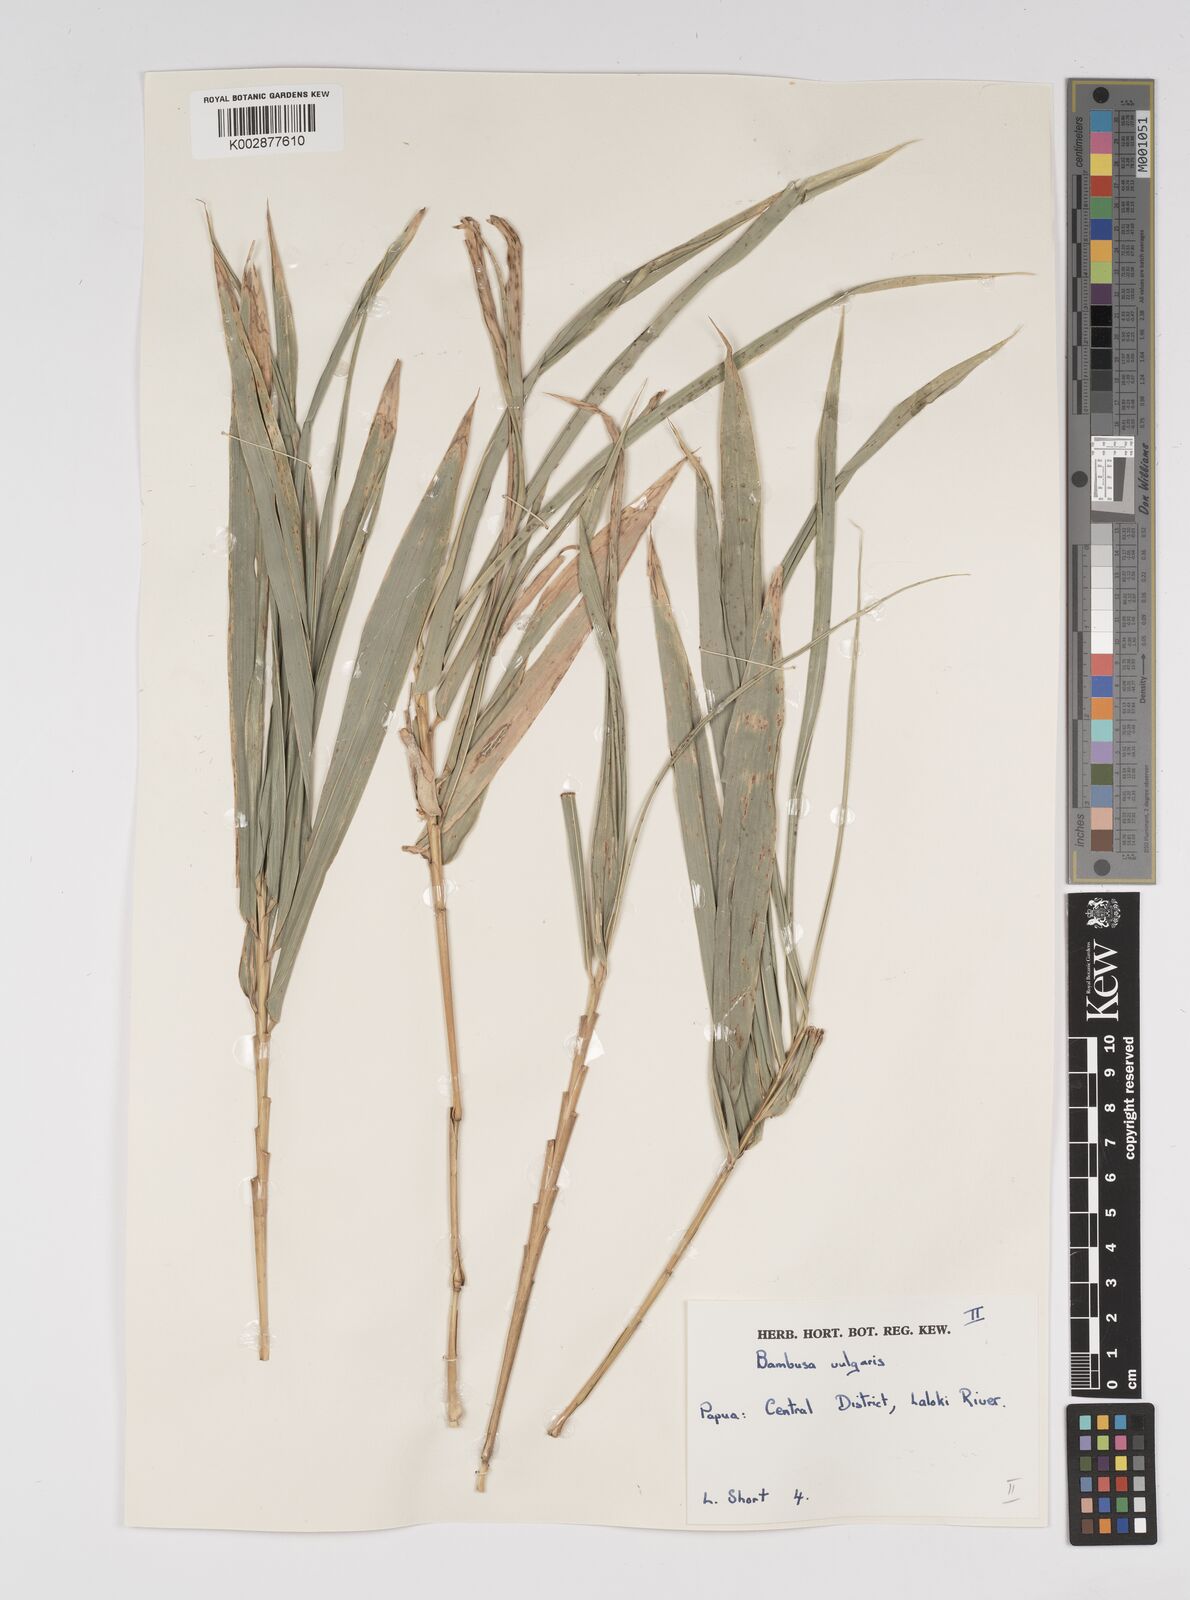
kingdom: Plantae
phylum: Tracheophyta
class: Liliopsida
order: Poales
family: Poaceae
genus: Bambusa
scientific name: Bambusa balcooa
